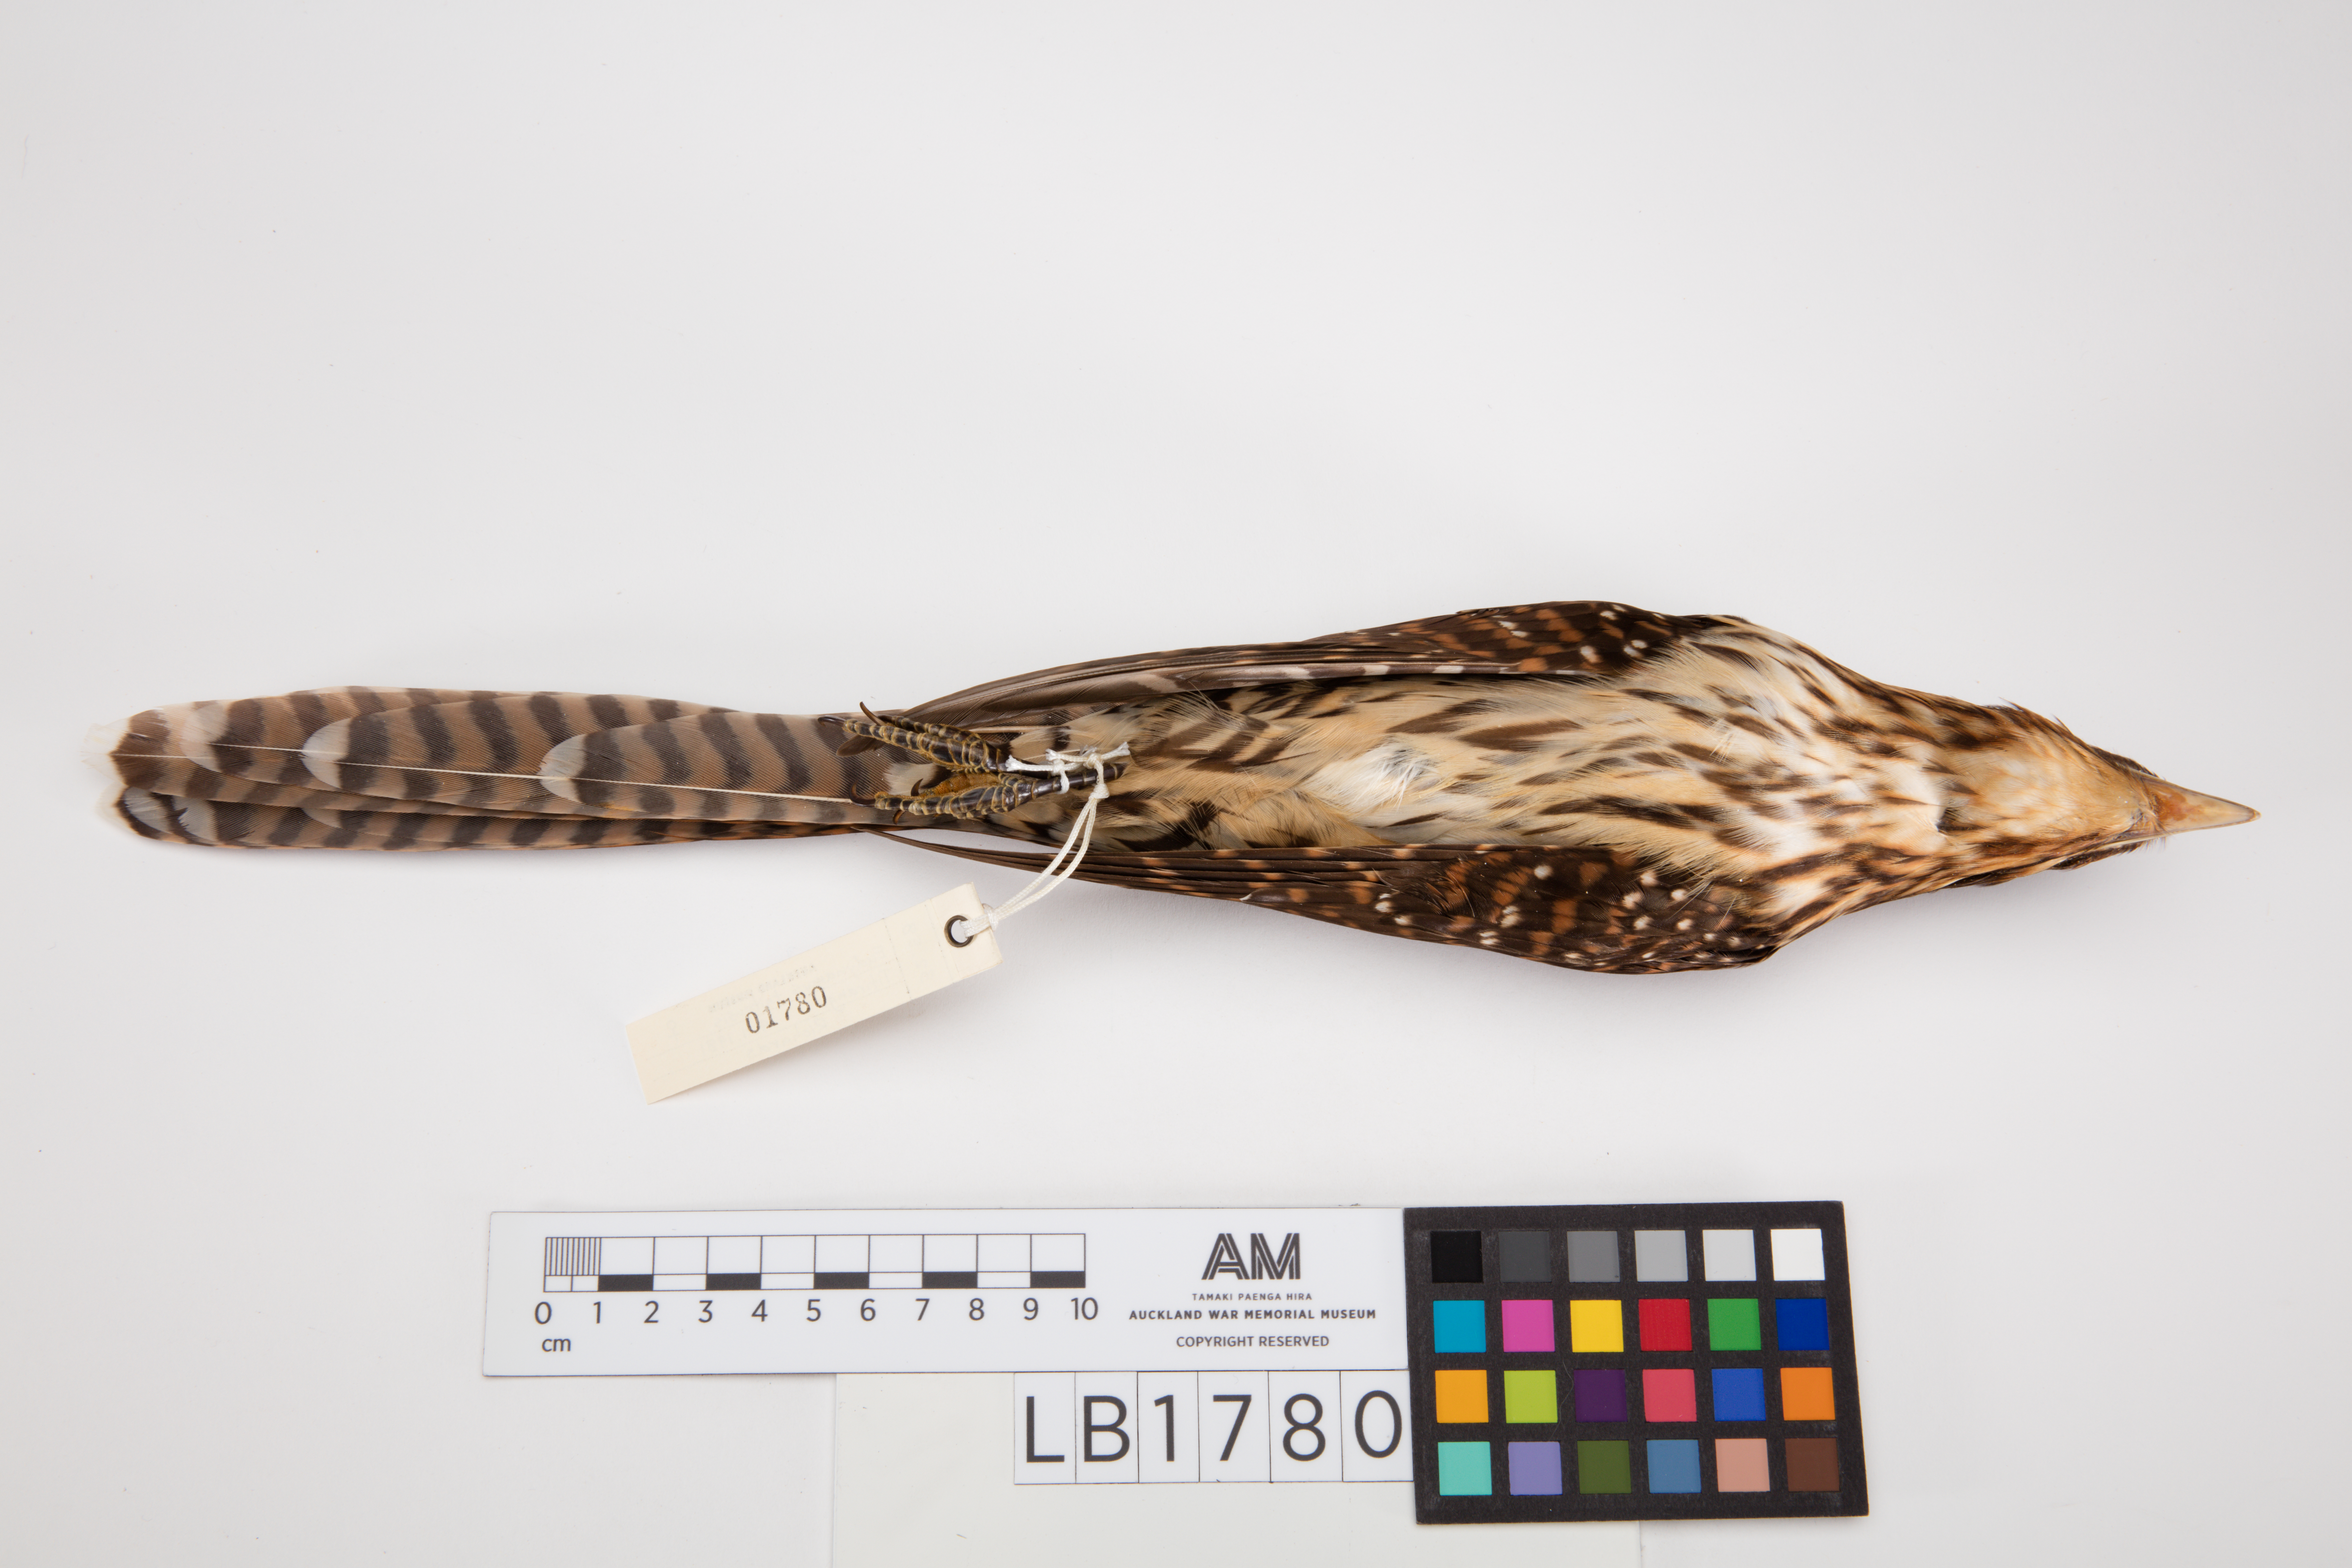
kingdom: Animalia
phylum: Chordata
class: Aves
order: Cuculiformes
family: Cuculidae
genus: Urodynamis
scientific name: Urodynamis taitensis
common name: Long-tailed koel
